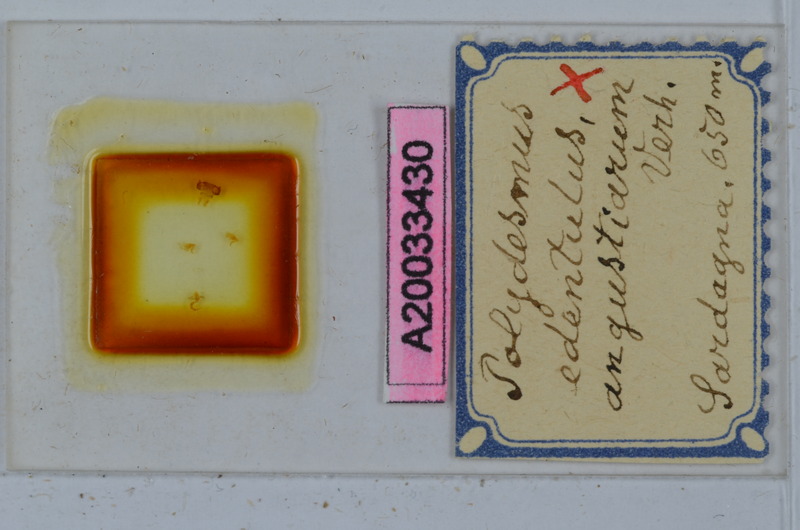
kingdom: Animalia
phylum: Arthropoda
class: Diplopoda
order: Polydesmida
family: Polydesmidae
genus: Polydesmus
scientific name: Polydesmus edentulus
